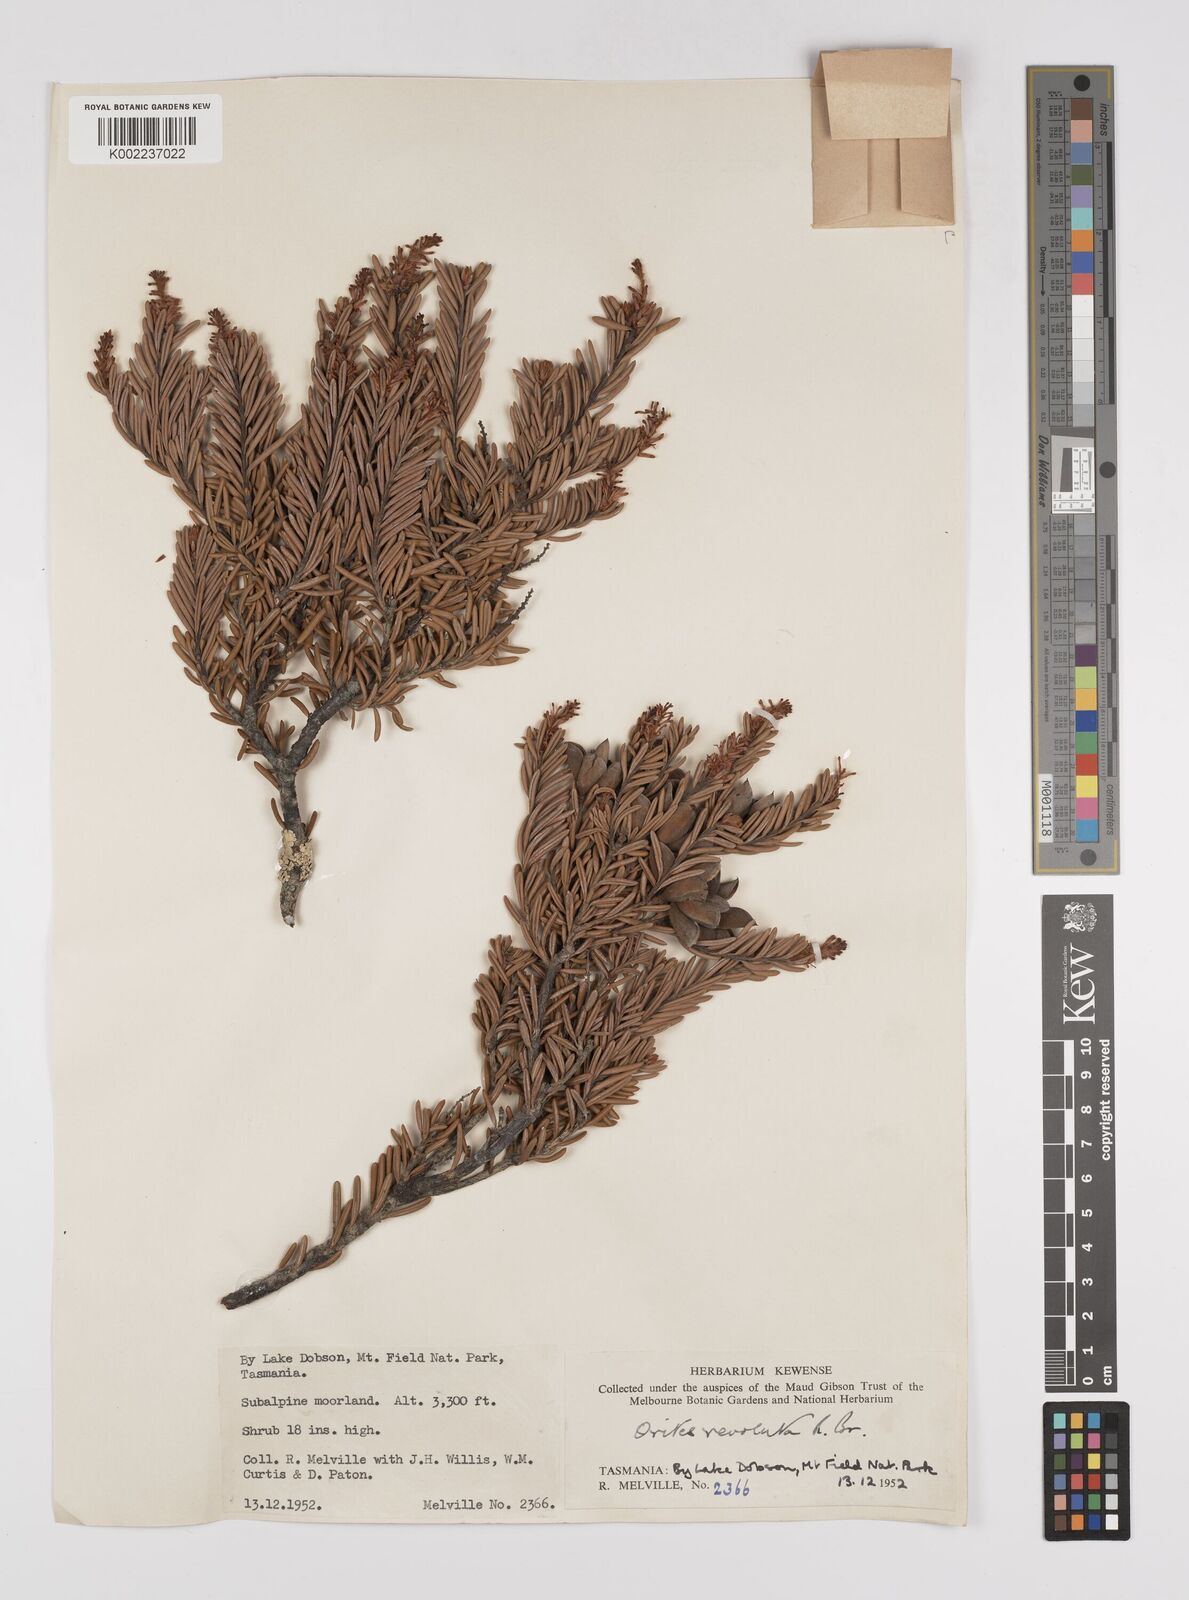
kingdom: Plantae
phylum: Tracheophyta
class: Magnoliopsida
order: Proteales
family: Proteaceae
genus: Orites
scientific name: Orites revolutus
